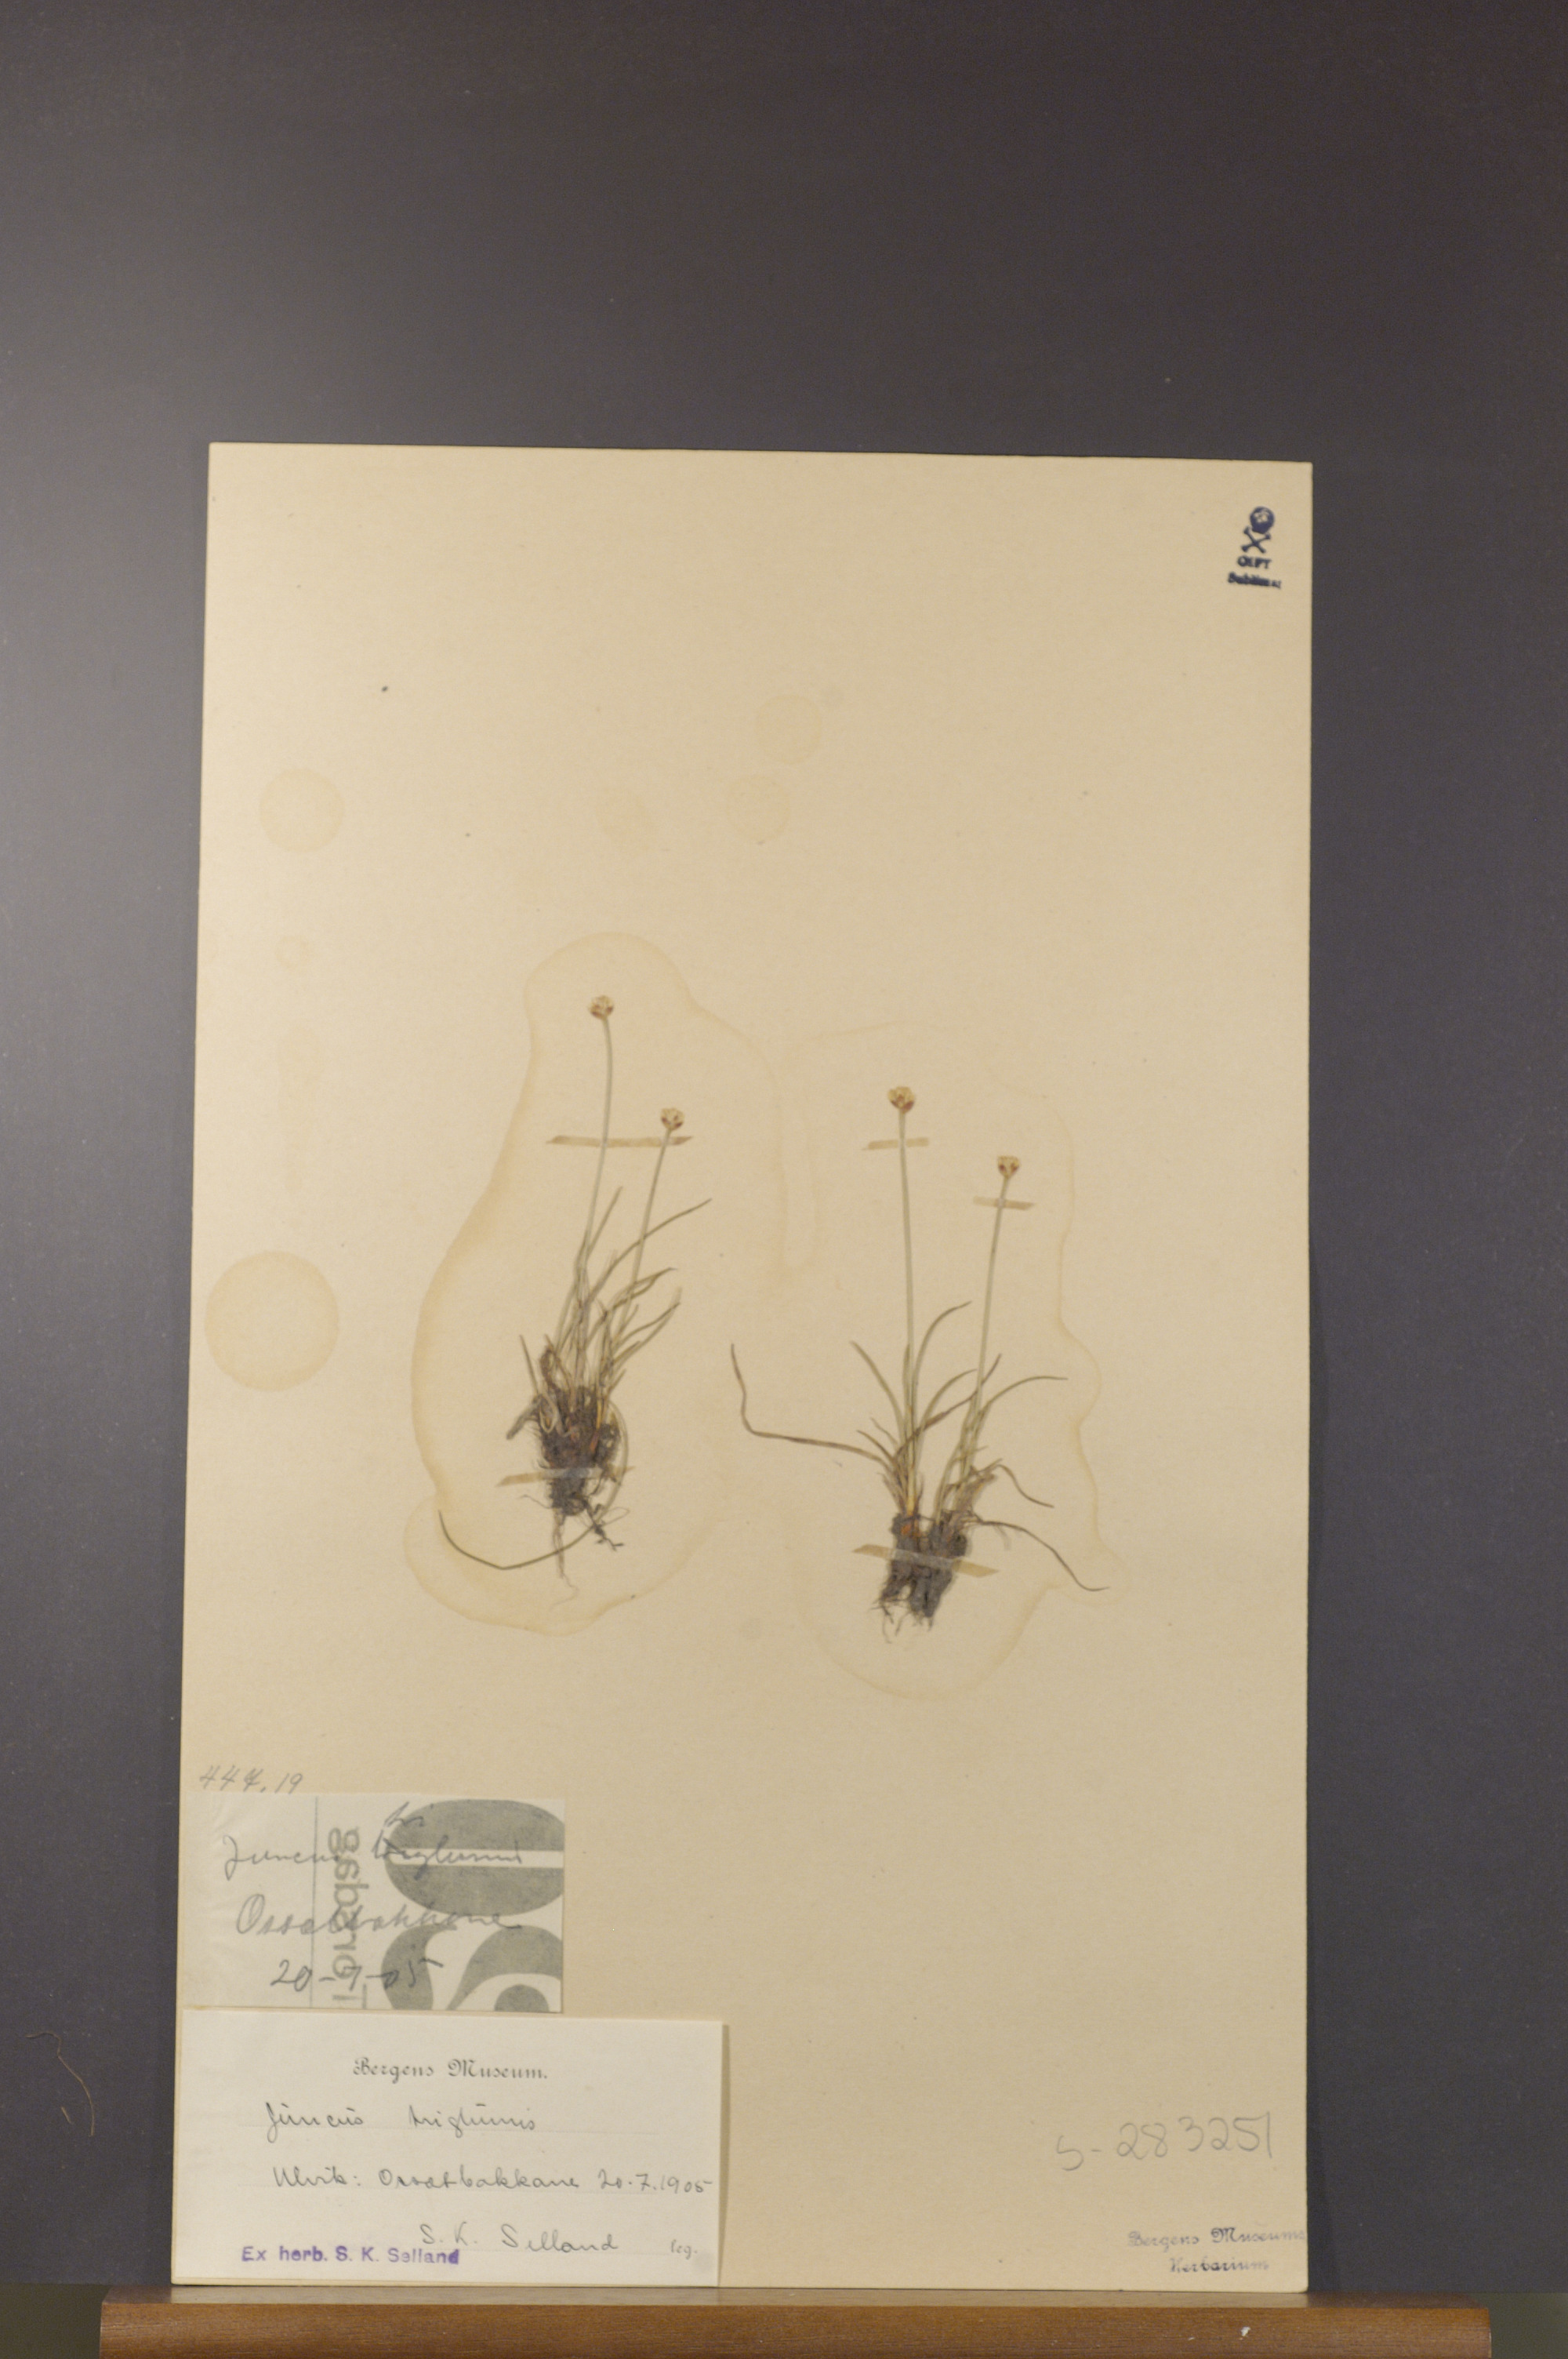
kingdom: Plantae
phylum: Tracheophyta
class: Liliopsida
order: Poales
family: Juncaceae
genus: Juncus
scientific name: Juncus triglumis
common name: Three-flowered rush
